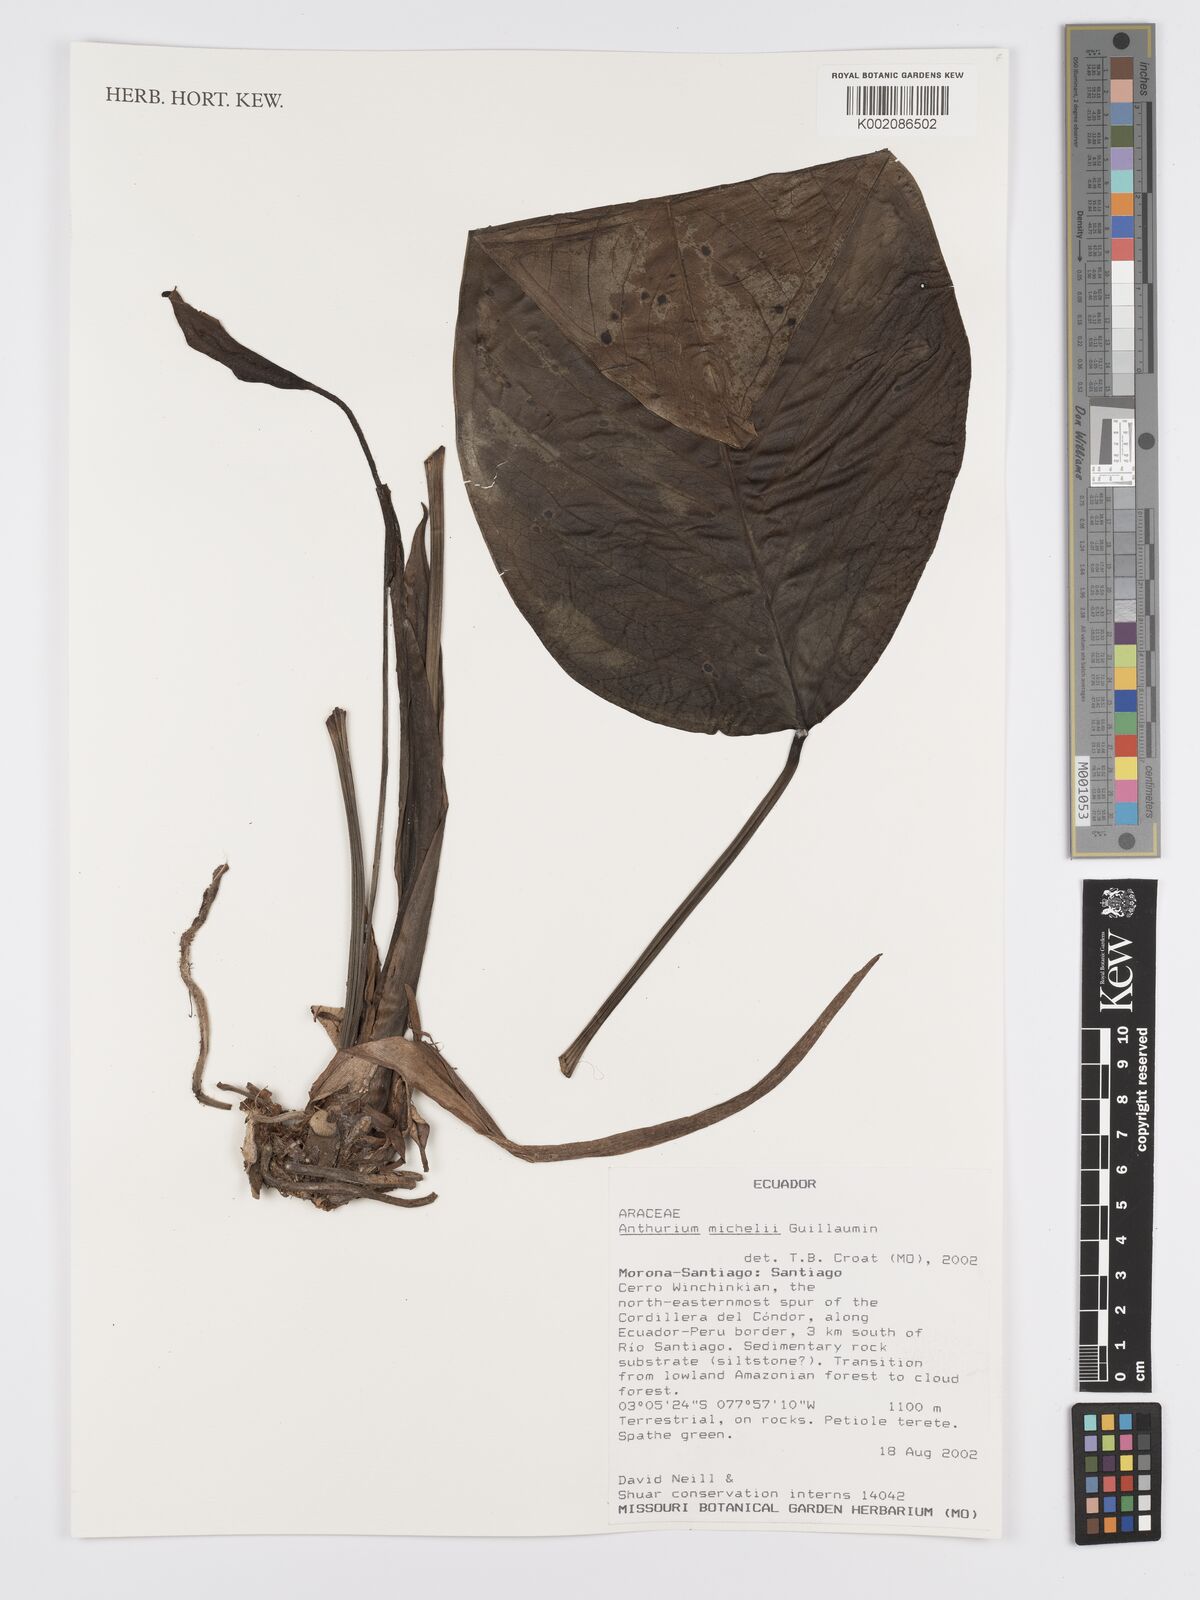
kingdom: Plantae
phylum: Tracheophyta
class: Liliopsida
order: Alismatales
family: Araceae
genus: Anthurium
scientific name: Anthurium michelii
